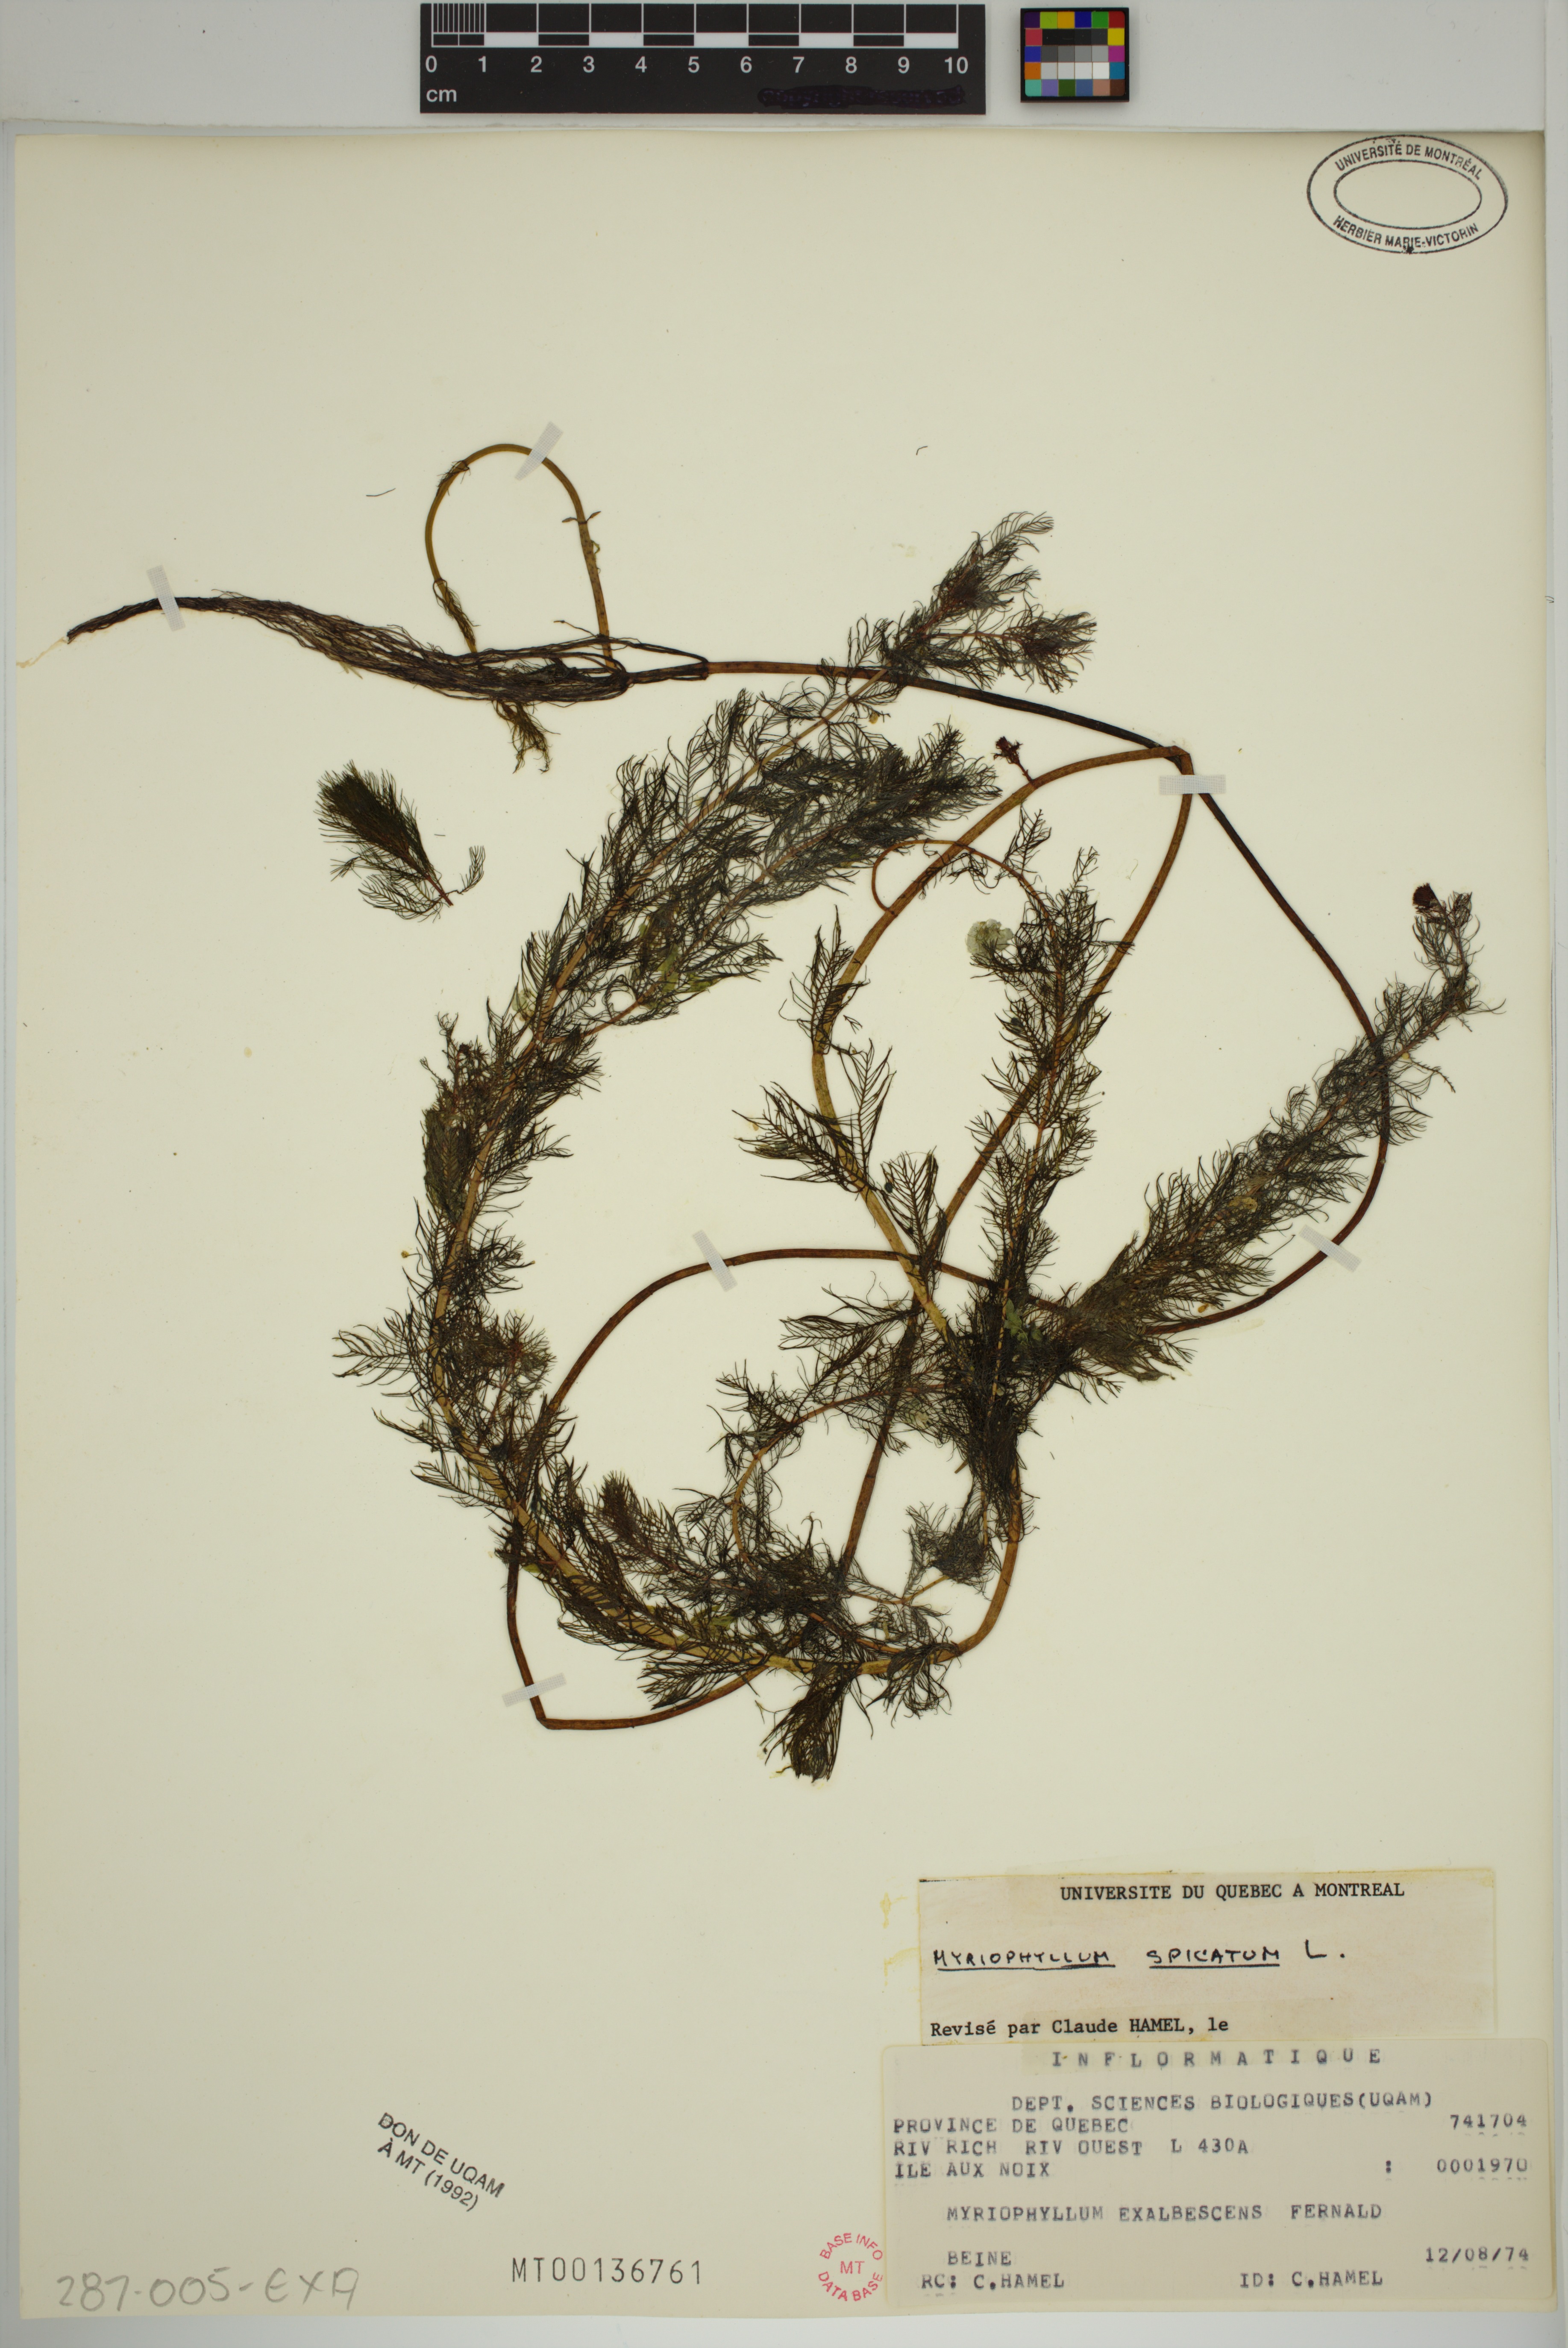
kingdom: Plantae
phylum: Tracheophyta
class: Magnoliopsida
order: Saxifragales
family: Haloragaceae
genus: Myriophyllum
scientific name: Myriophyllum spicatum
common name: Spiked water-milfoil
